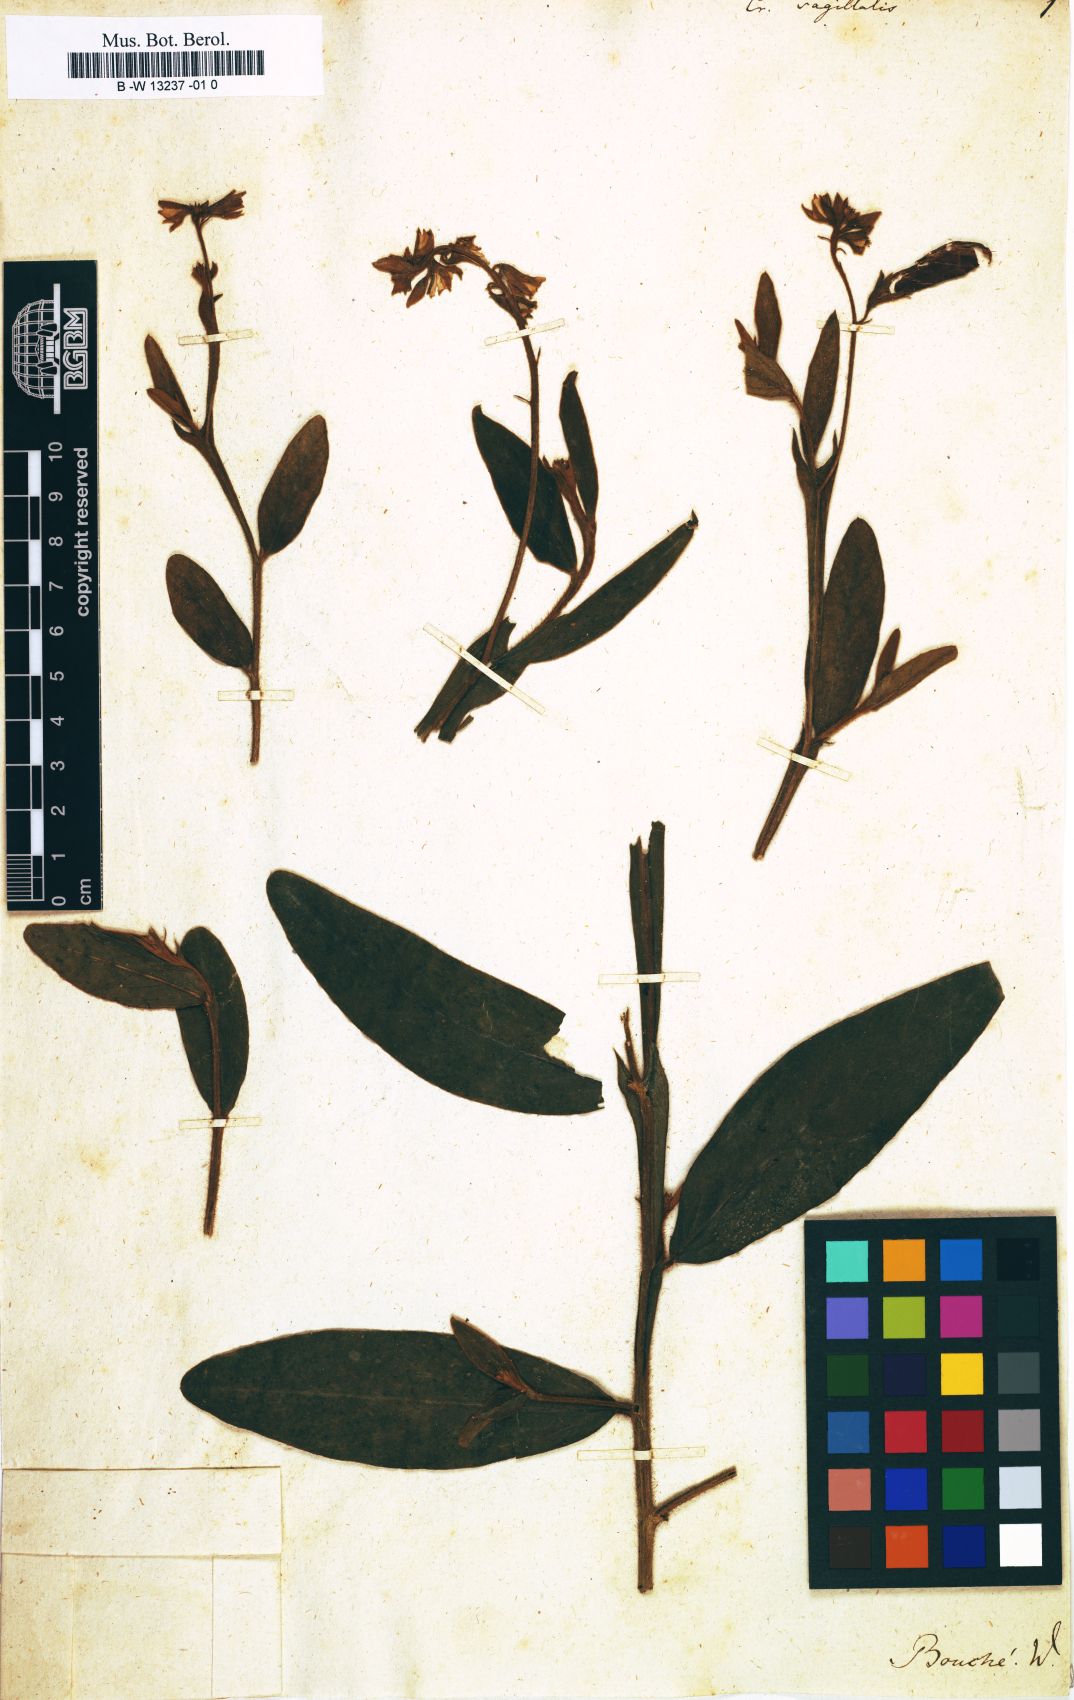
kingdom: Plantae
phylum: Tracheophyta
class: Magnoliopsida
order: Fabales
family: Fabaceae
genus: Crotalaria
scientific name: Crotalaria sagittalis
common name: Arrowhead rattlebox
